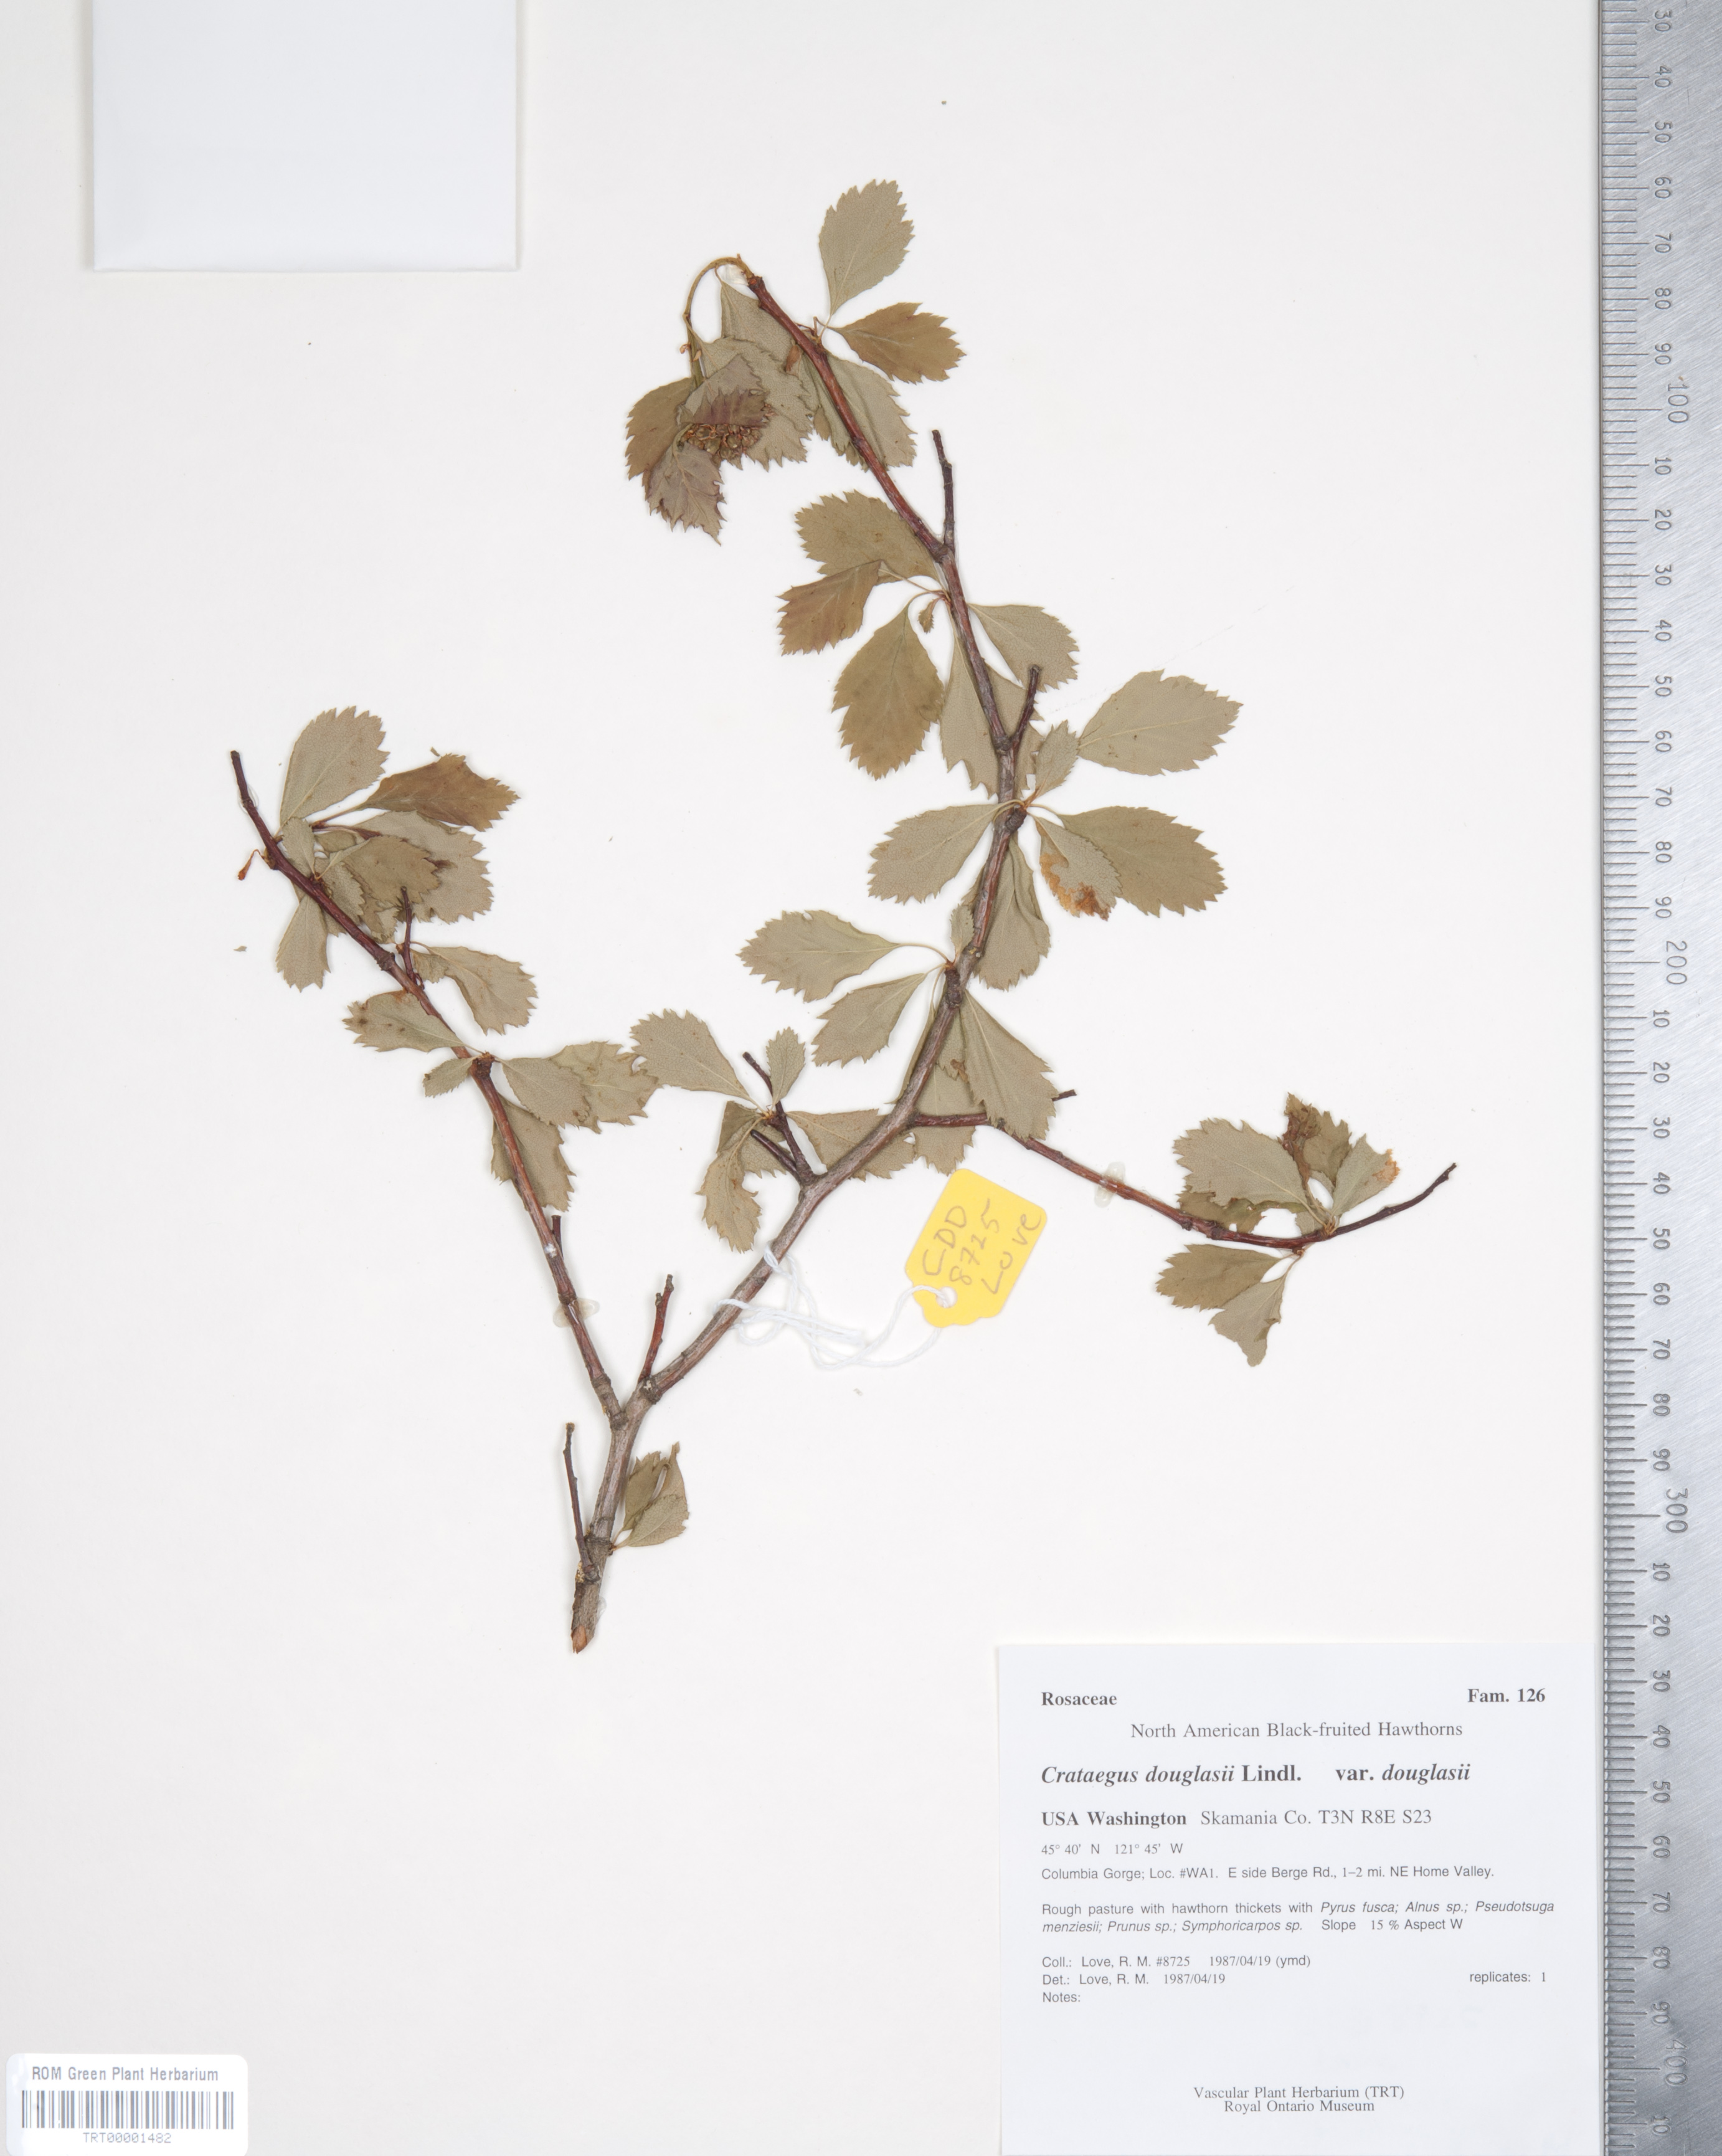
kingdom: Plantae
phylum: Tracheophyta
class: Magnoliopsida
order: Rosales
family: Rosaceae
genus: Crataegus
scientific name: Crataegus douglasii
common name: Black hawthorn
